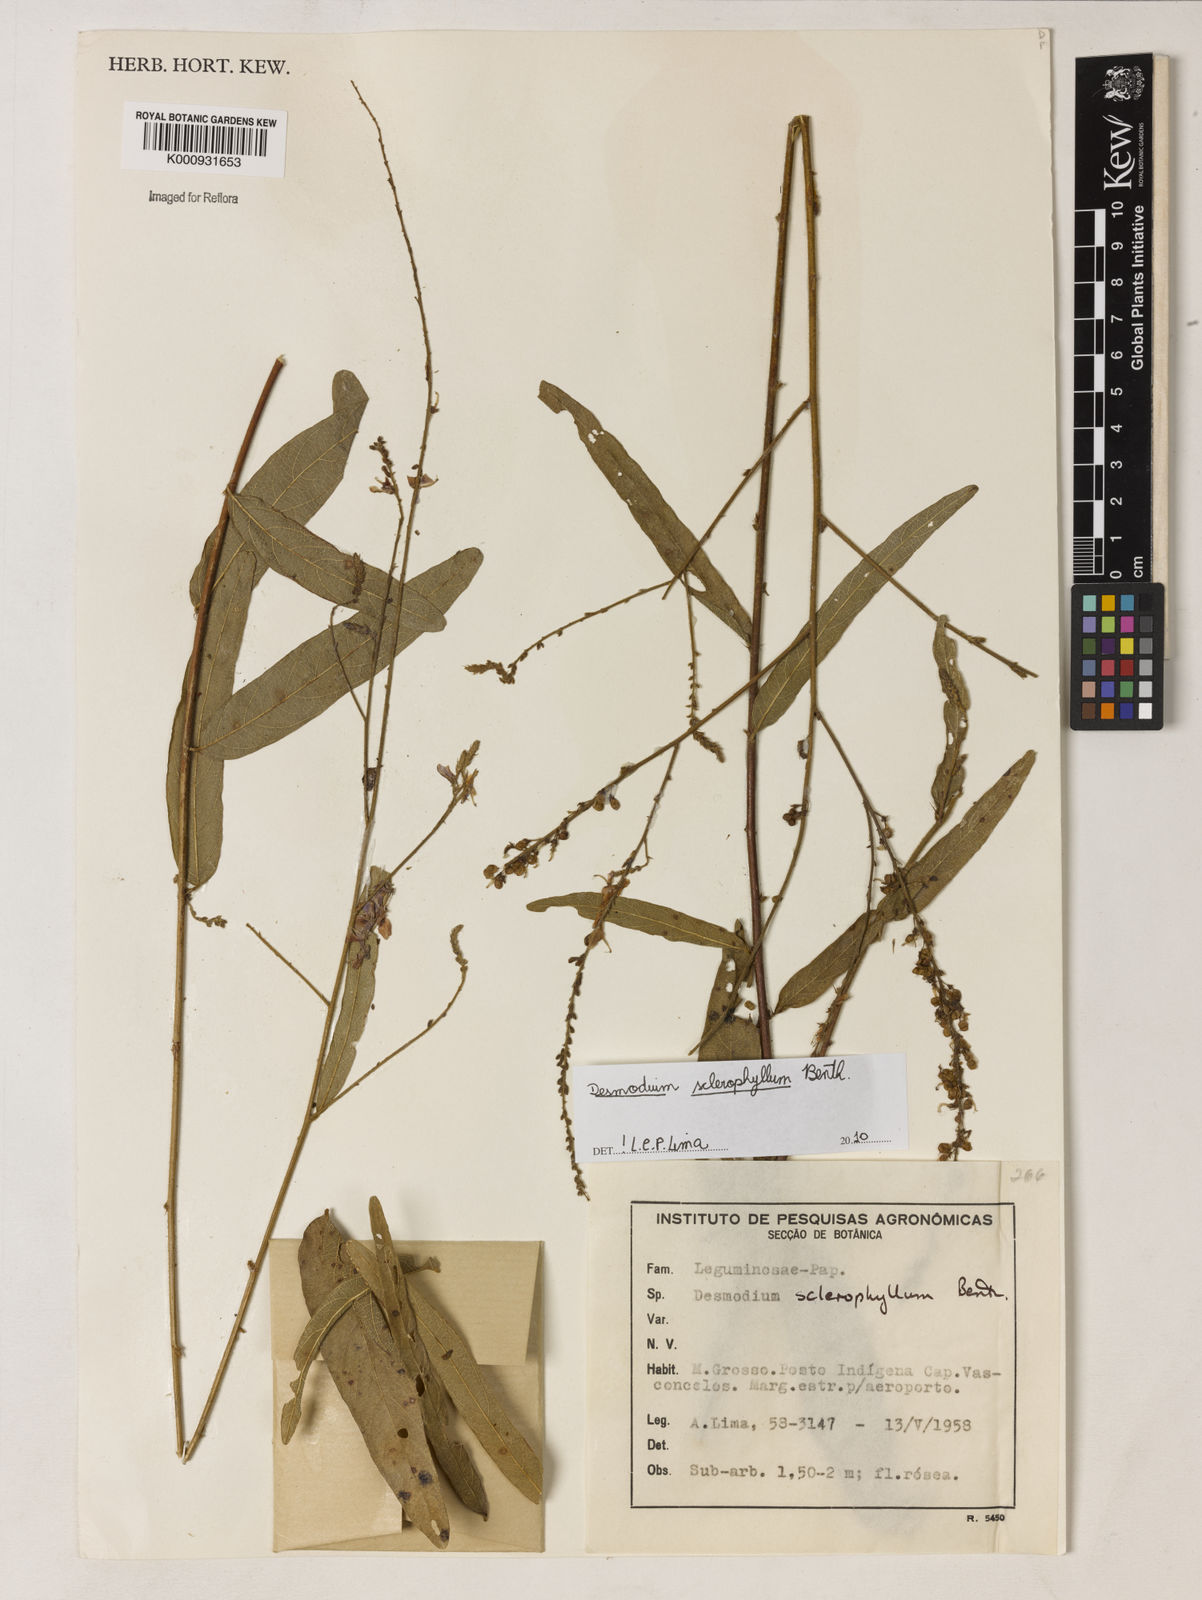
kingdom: Plantae
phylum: Tracheophyta
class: Magnoliopsida
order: Fabales
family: Fabaceae
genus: Desmodium
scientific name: Desmodium sclerophyllum
